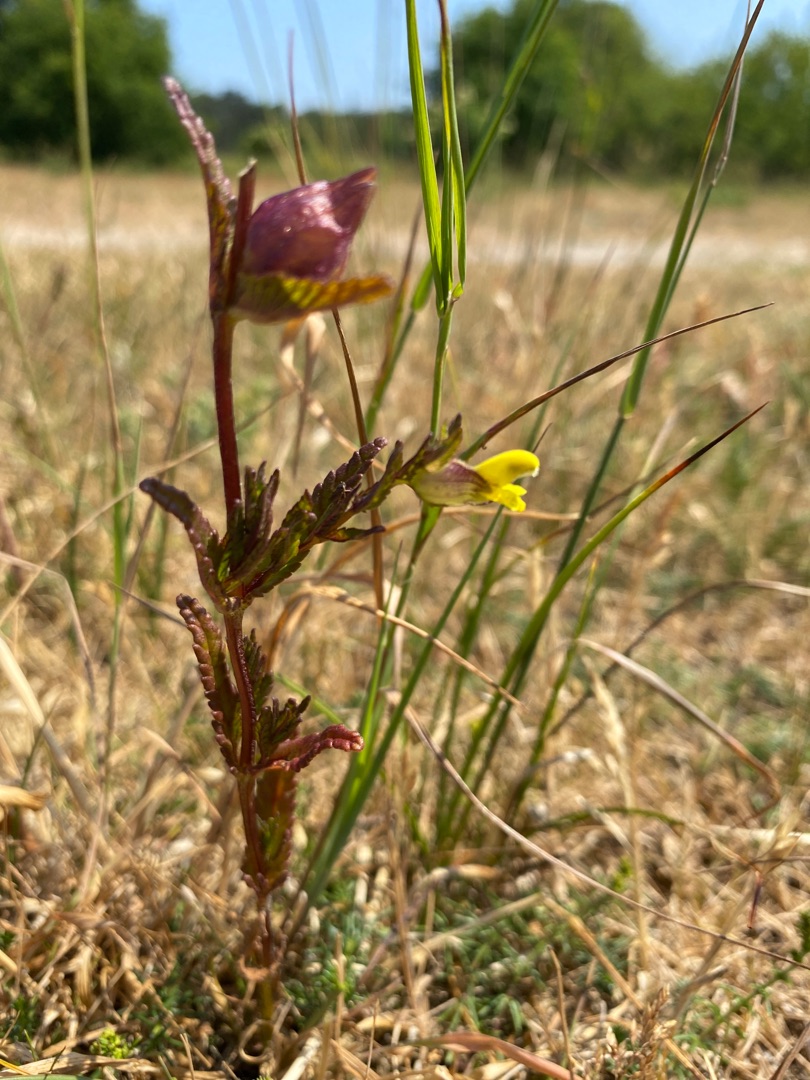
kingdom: Plantae
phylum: Tracheophyta
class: Magnoliopsida
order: Lamiales
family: Orobanchaceae
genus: Rhinanthus
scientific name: Rhinanthus minor
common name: Liden skjaller
